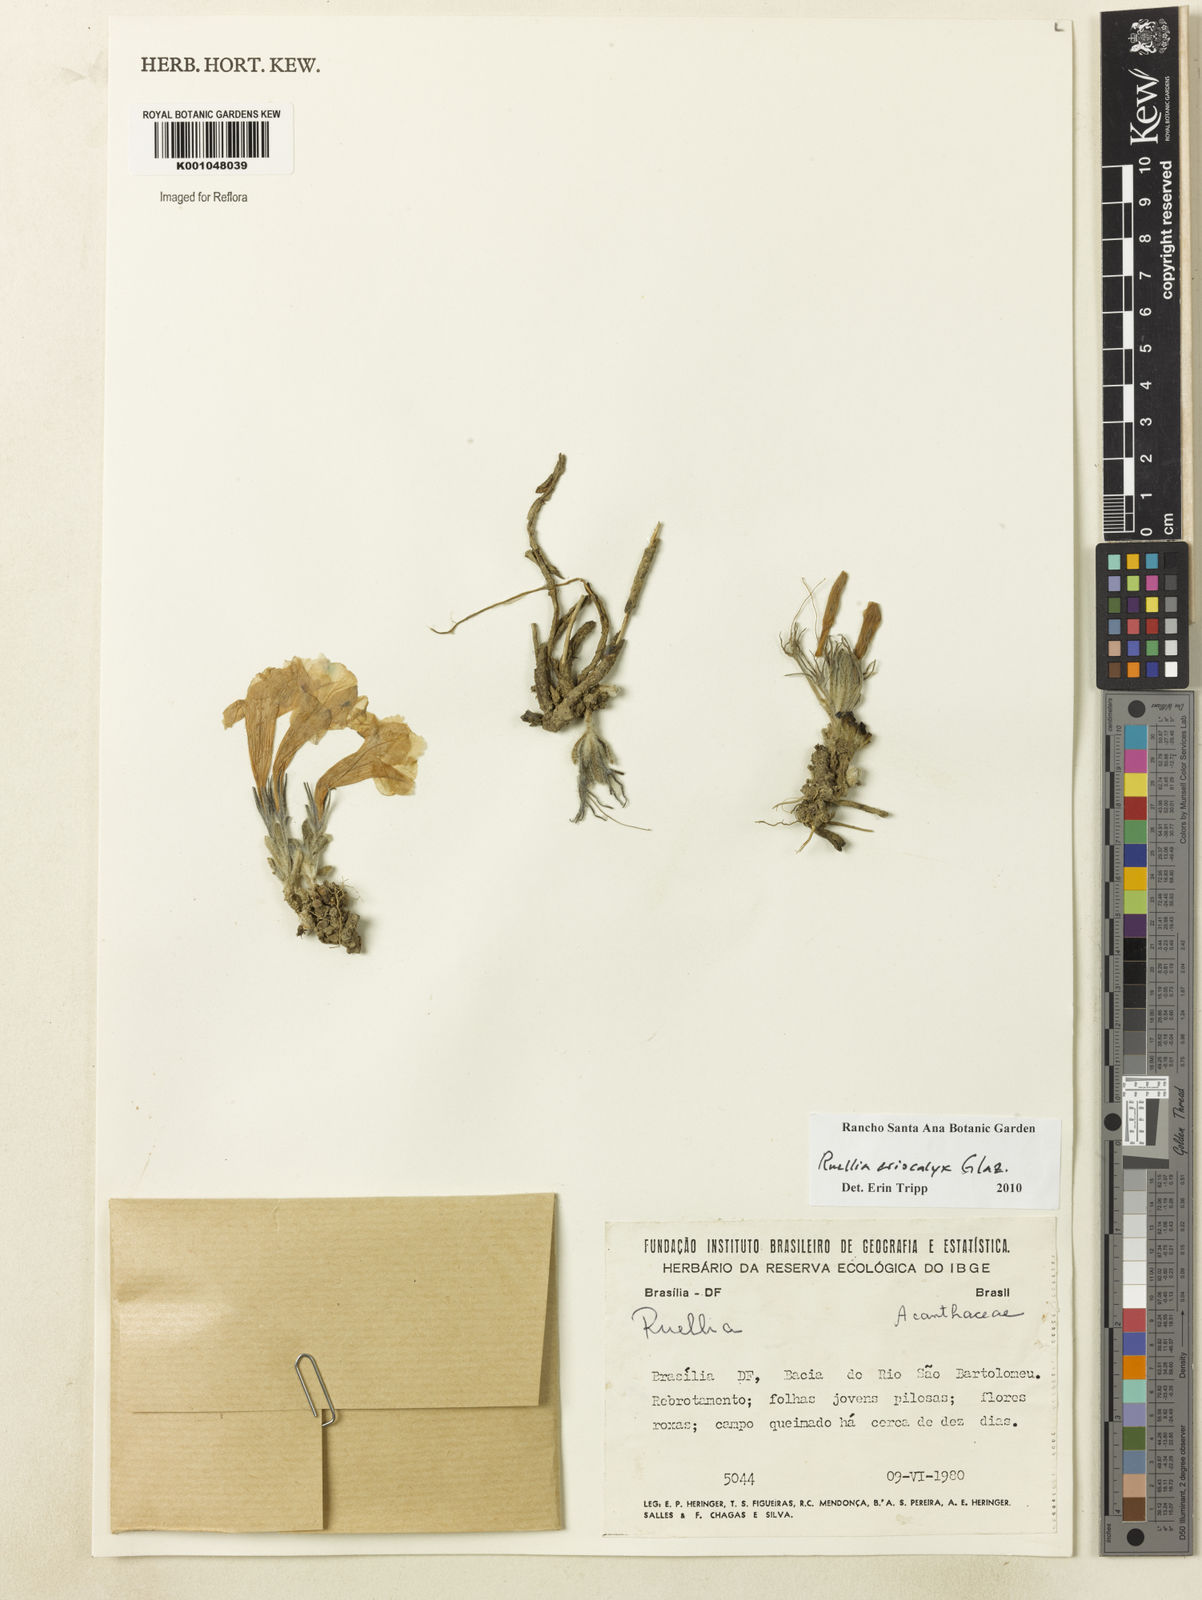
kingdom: Plantae
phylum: Tracheophyta
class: Magnoliopsida
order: Lamiales
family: Acanthaceae
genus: Ruellia
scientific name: Ruellia
